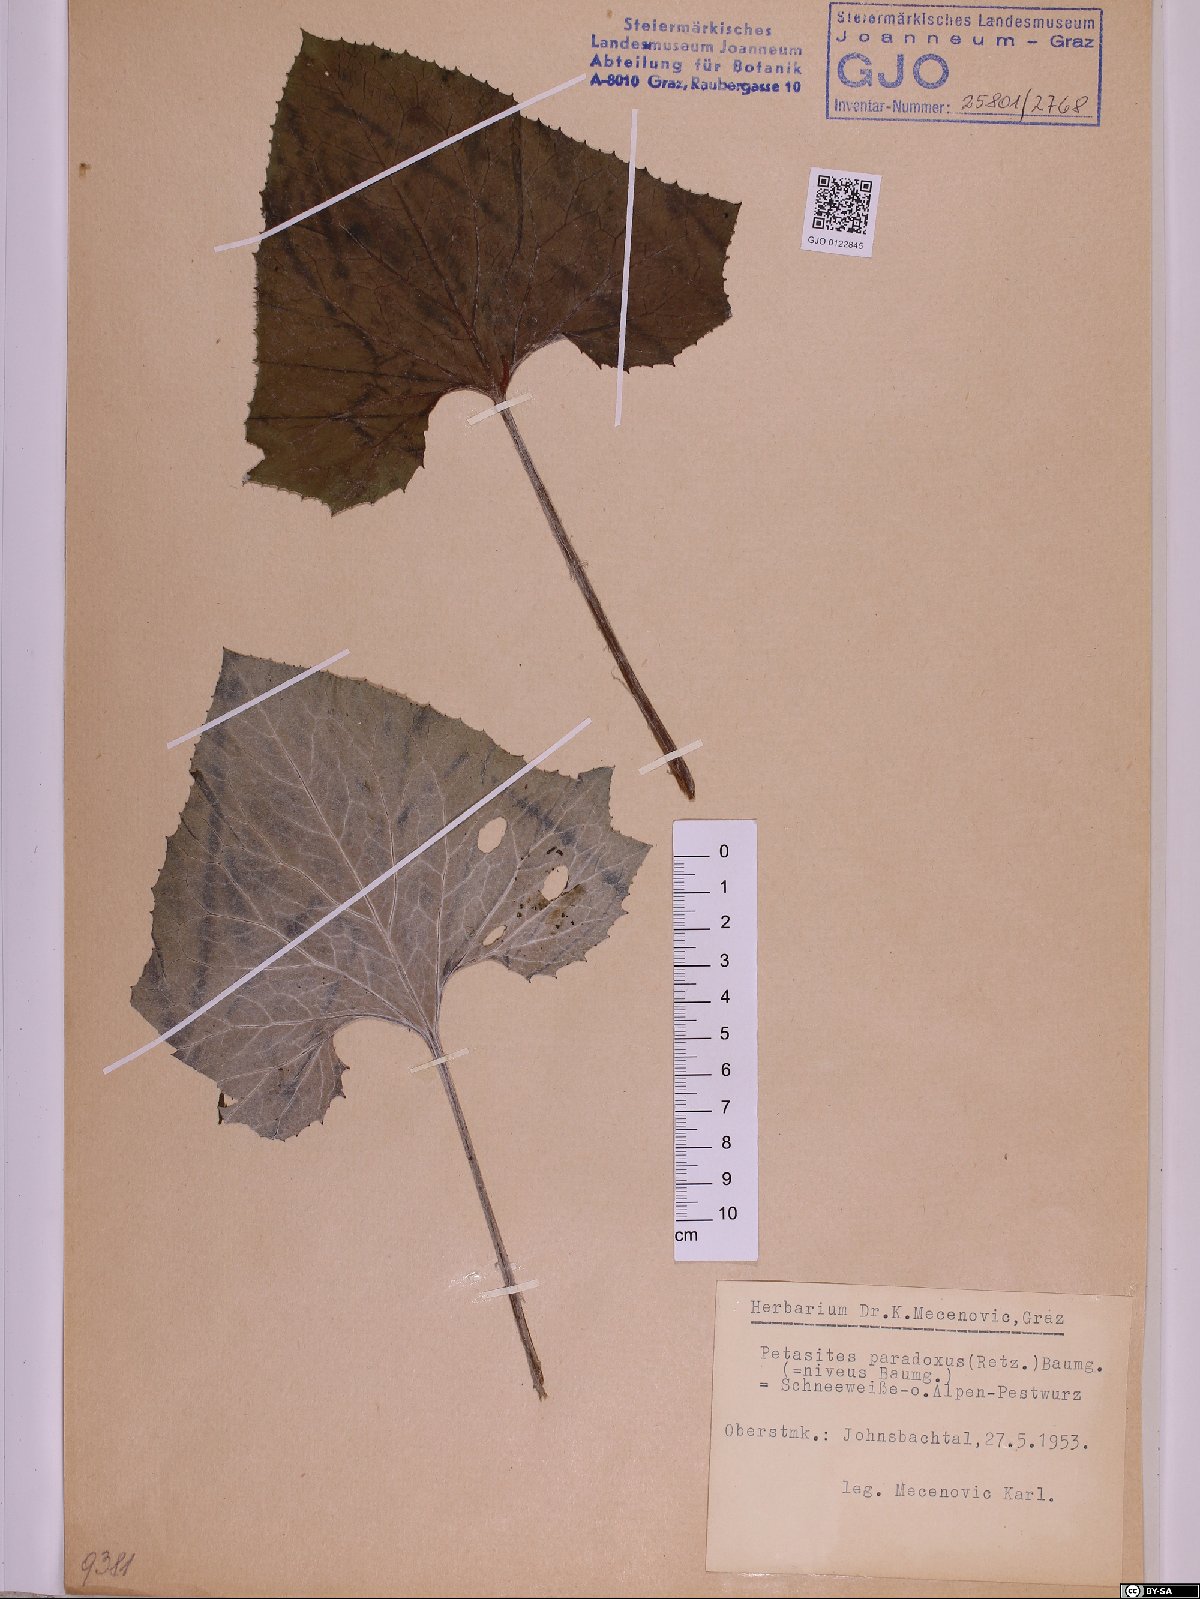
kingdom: Plantae
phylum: Tracheophyta
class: Magnoliopsida
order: Asterales
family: Asteraceae
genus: Petasites
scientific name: Petasites paradoxus
